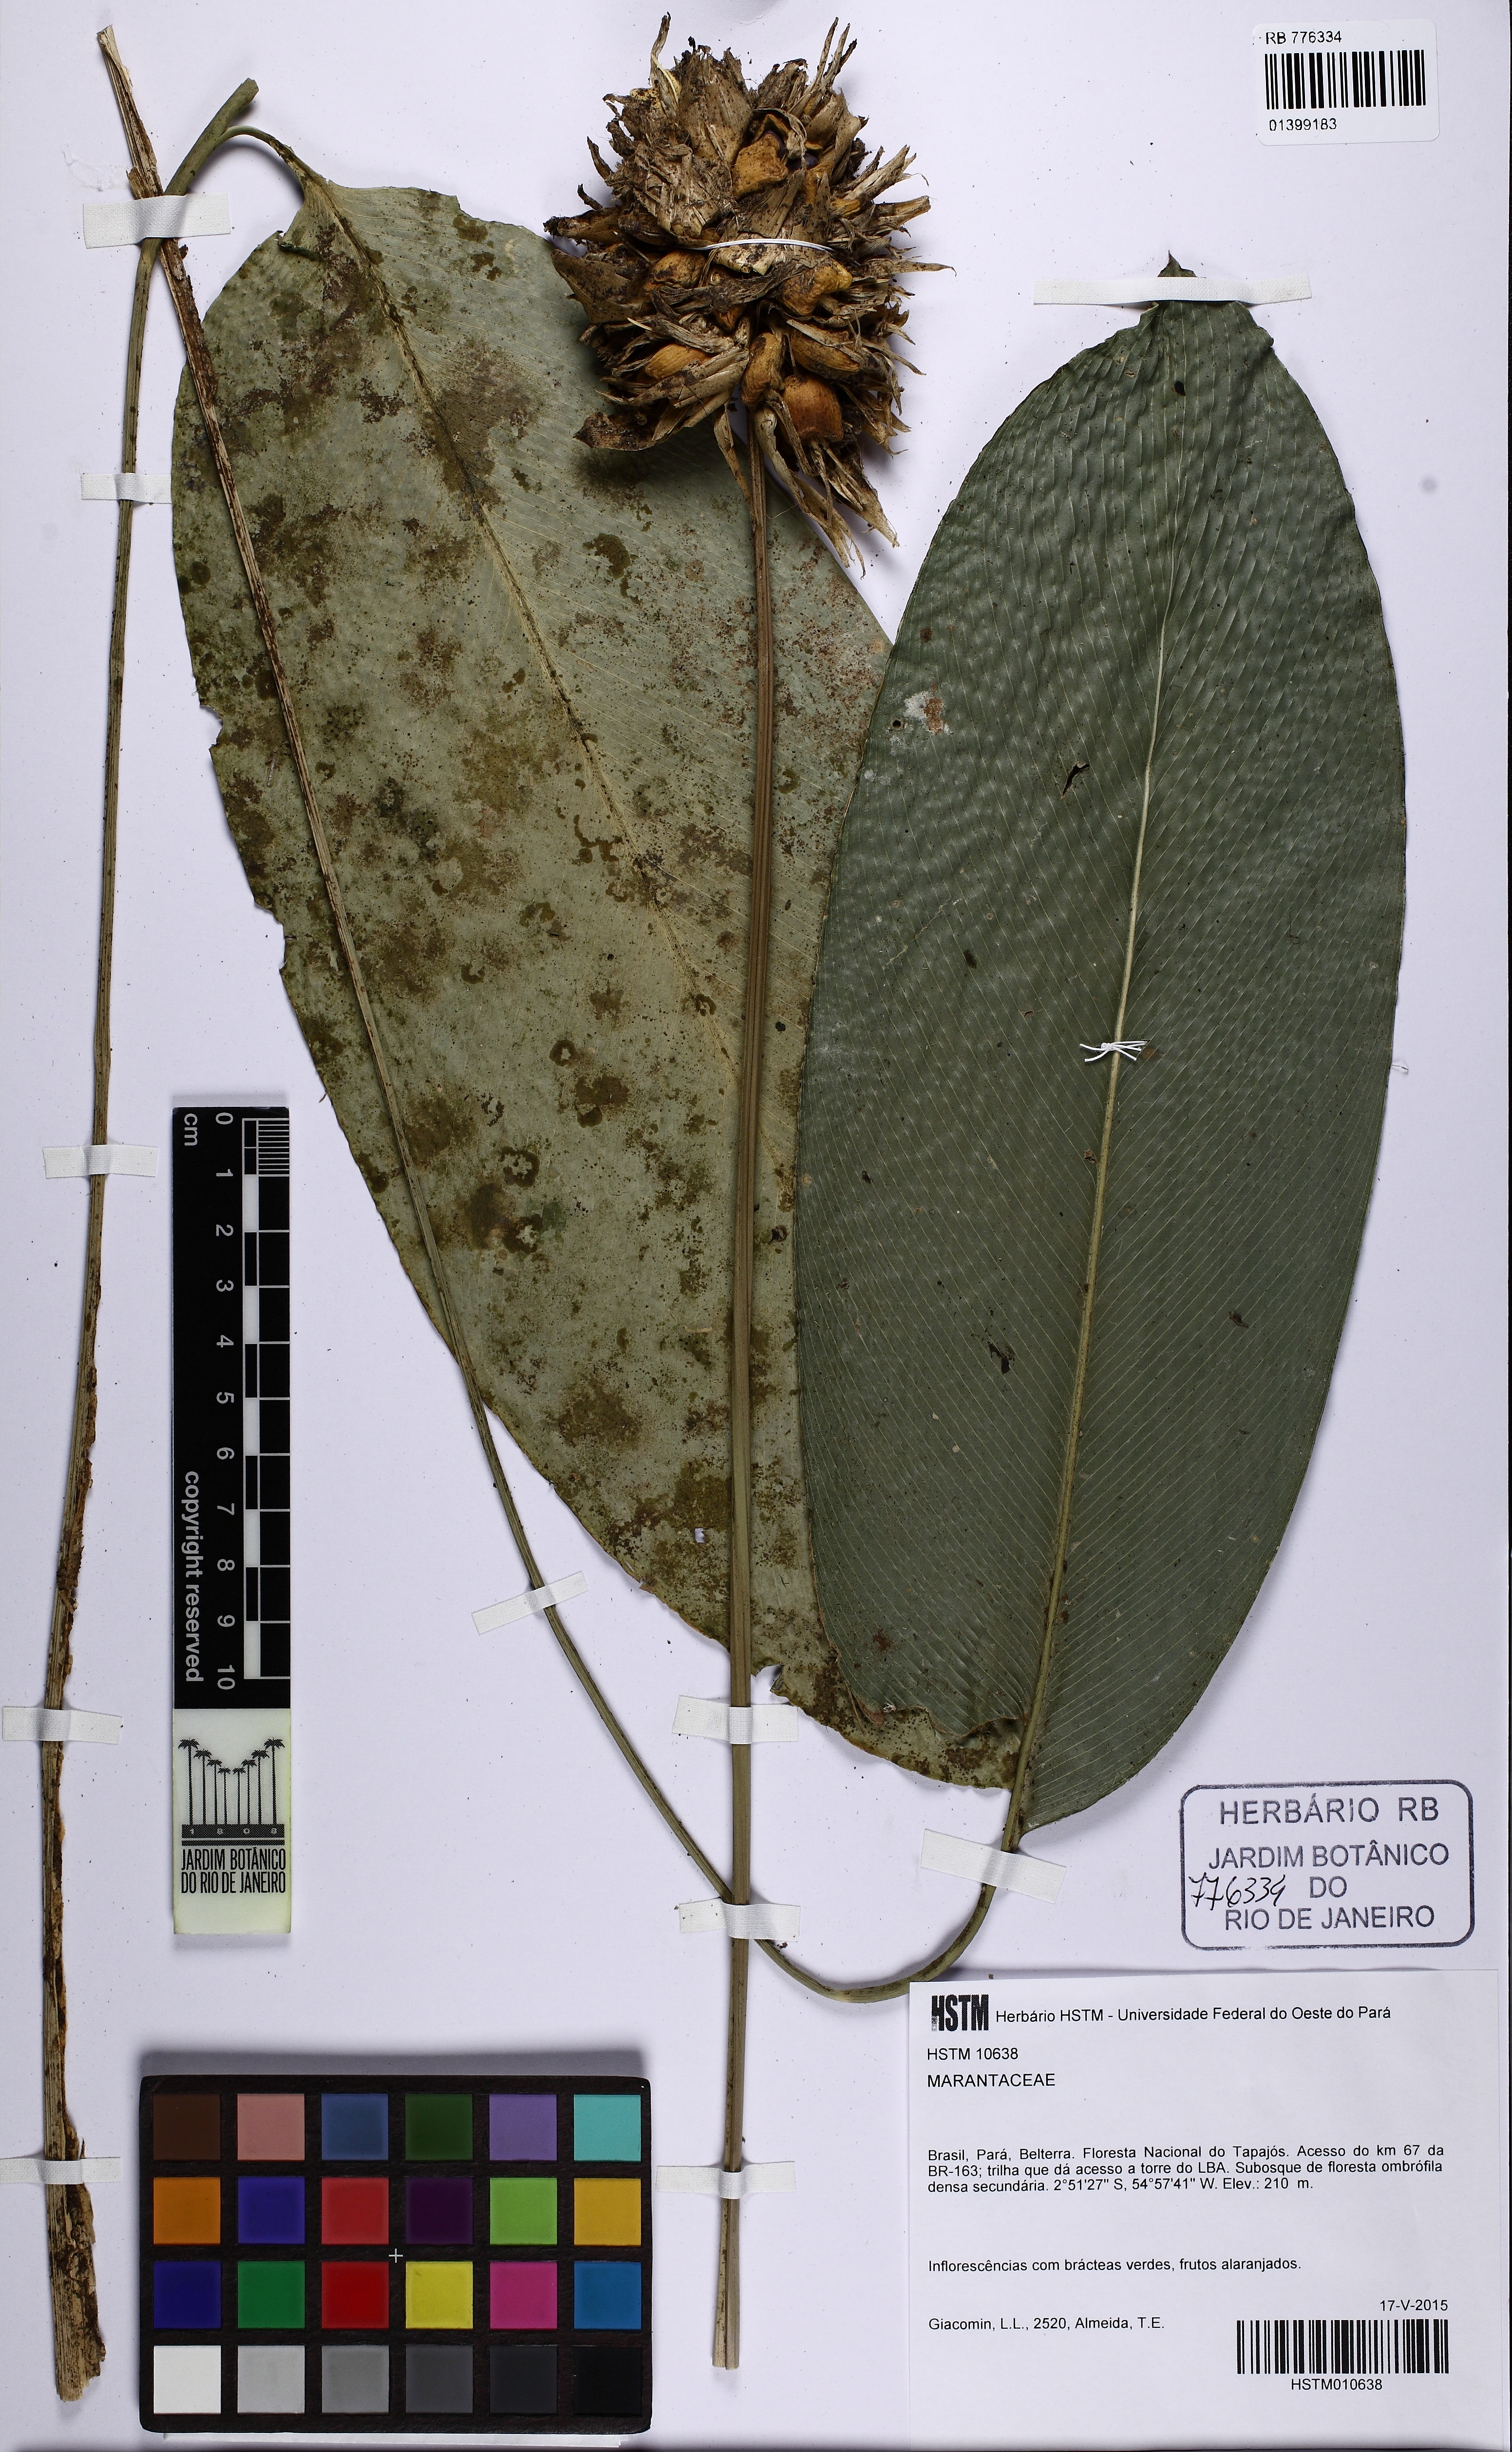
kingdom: Plantae
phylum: Tracheophyta
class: Liliopsida
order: Zingiberales
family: Marantaceae
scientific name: Marantaceae
